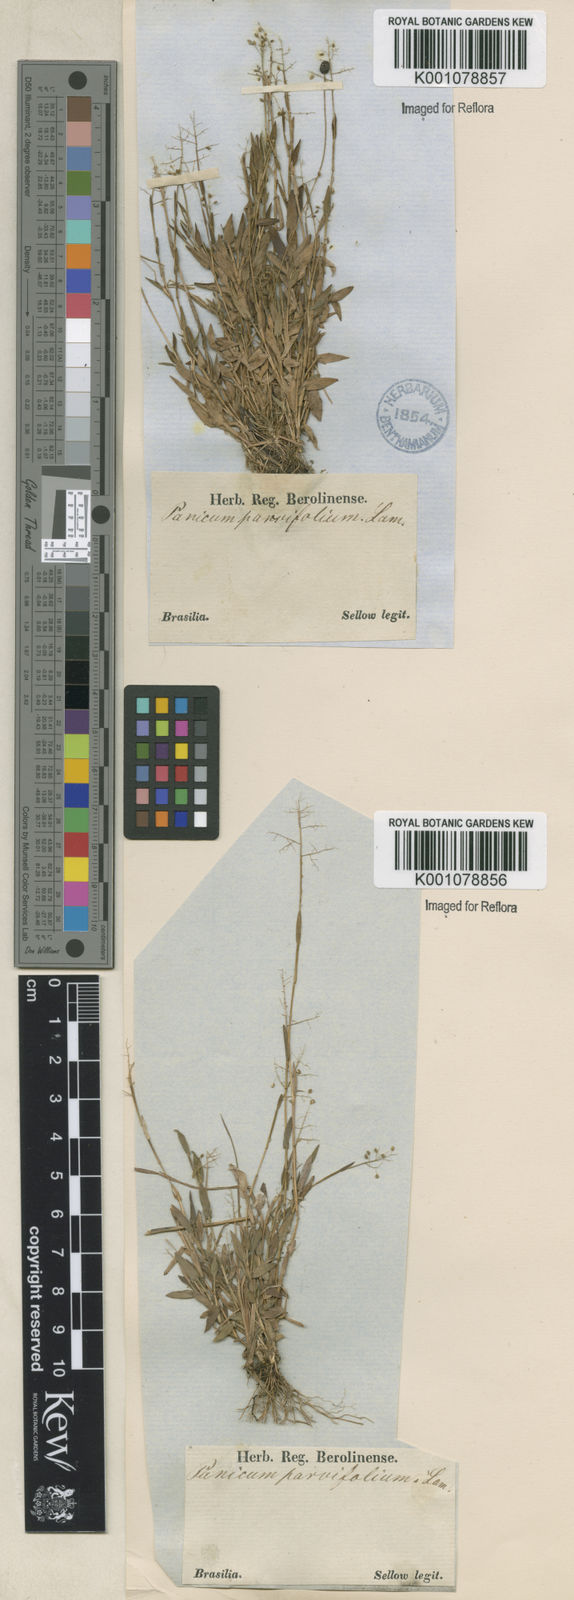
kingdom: Plantae
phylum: Tracheophyta
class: Liliopsida
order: Poales
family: Poaceae
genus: Trichanthecium
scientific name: Trichanthecium parvifolium
